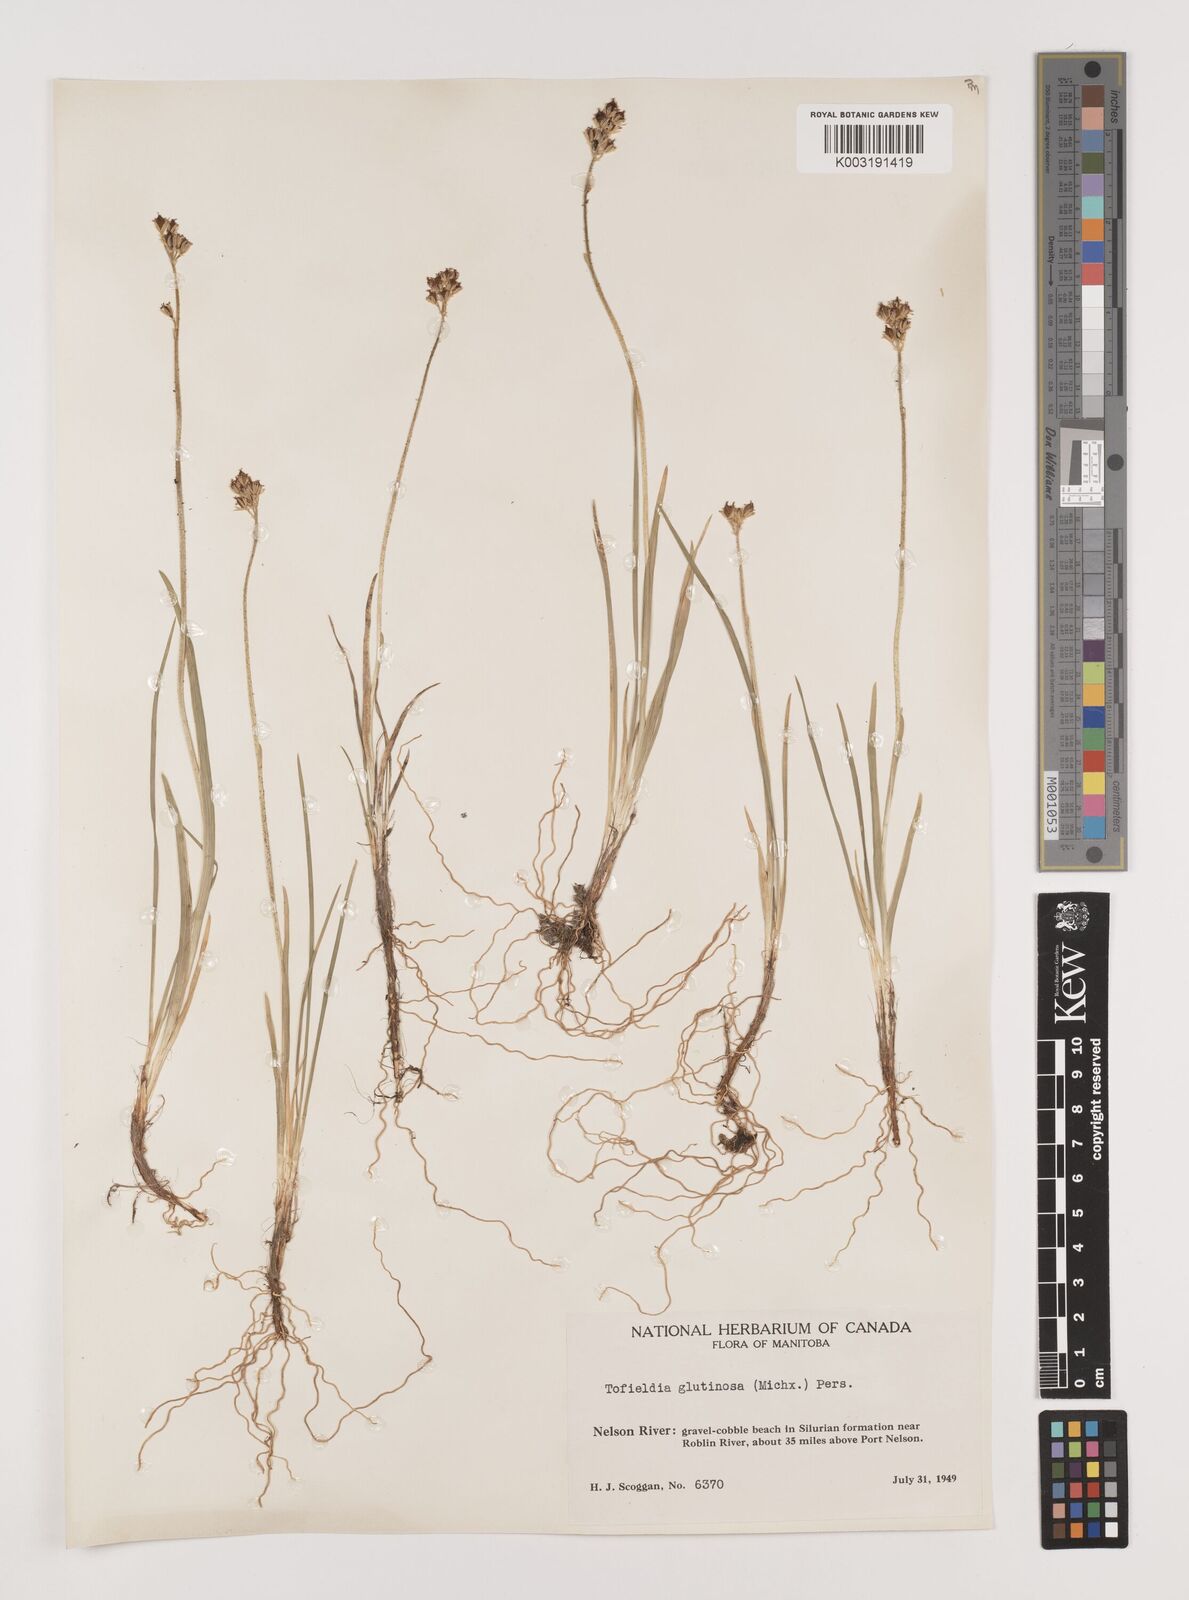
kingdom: Plantae
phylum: Tracheophyta
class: Liliopsida
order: Alismatales
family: Tofieldiaceae
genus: Triantha
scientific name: Triantha glutinosa
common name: Glutinous tofieldia
